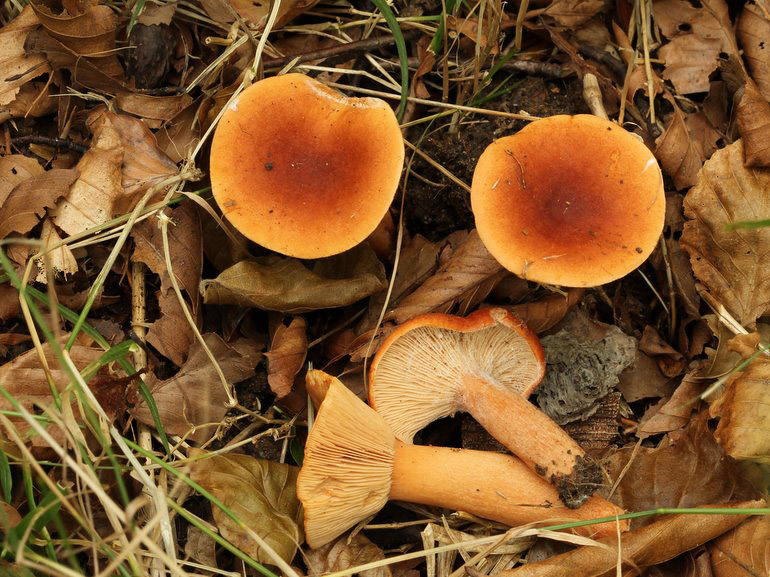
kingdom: Fungi
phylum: Basidiomycota
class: Agaricomycetes
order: Russulales
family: Russulaceae
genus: Lactarius
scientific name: Lactarius fulvissimus
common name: ræve-mælkehat
